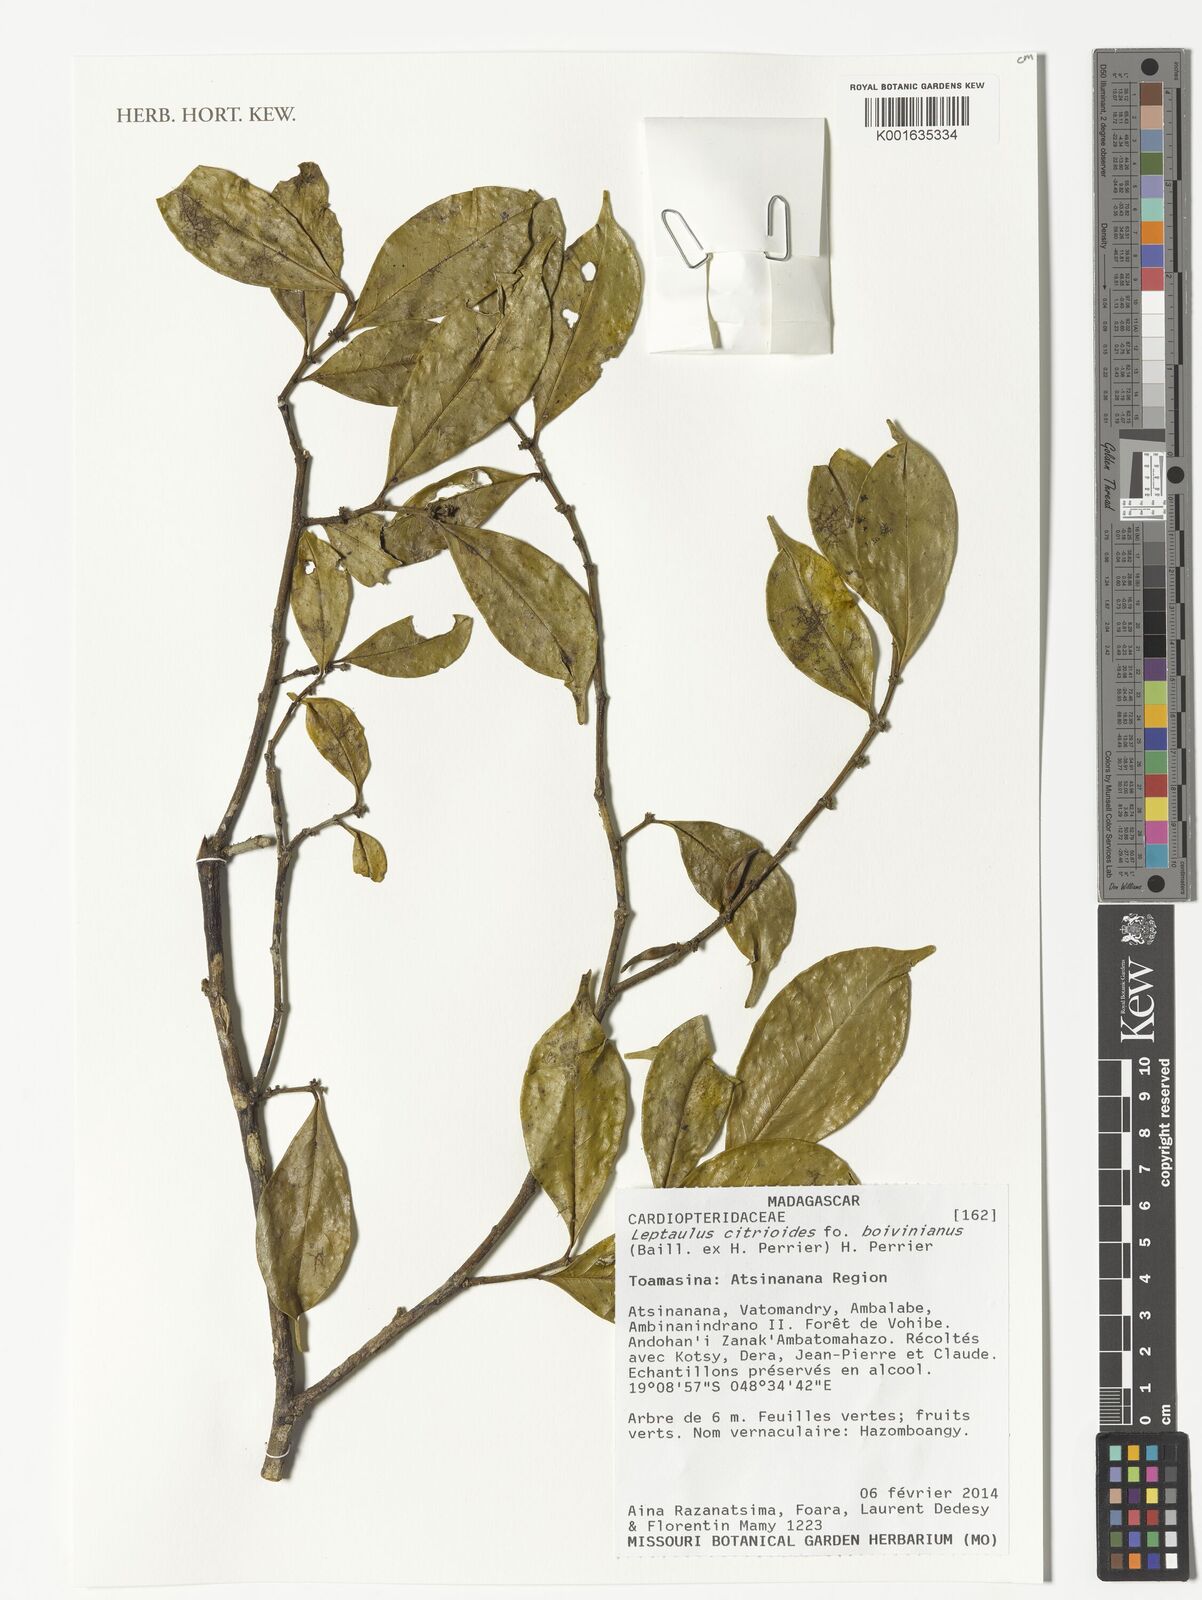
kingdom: Plantae
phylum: Tracheophyta
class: Magnoliopsida
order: Cardiopteridales
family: Cardiopteridaceae
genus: Leptaulus
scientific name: Leptaulus citrioides
